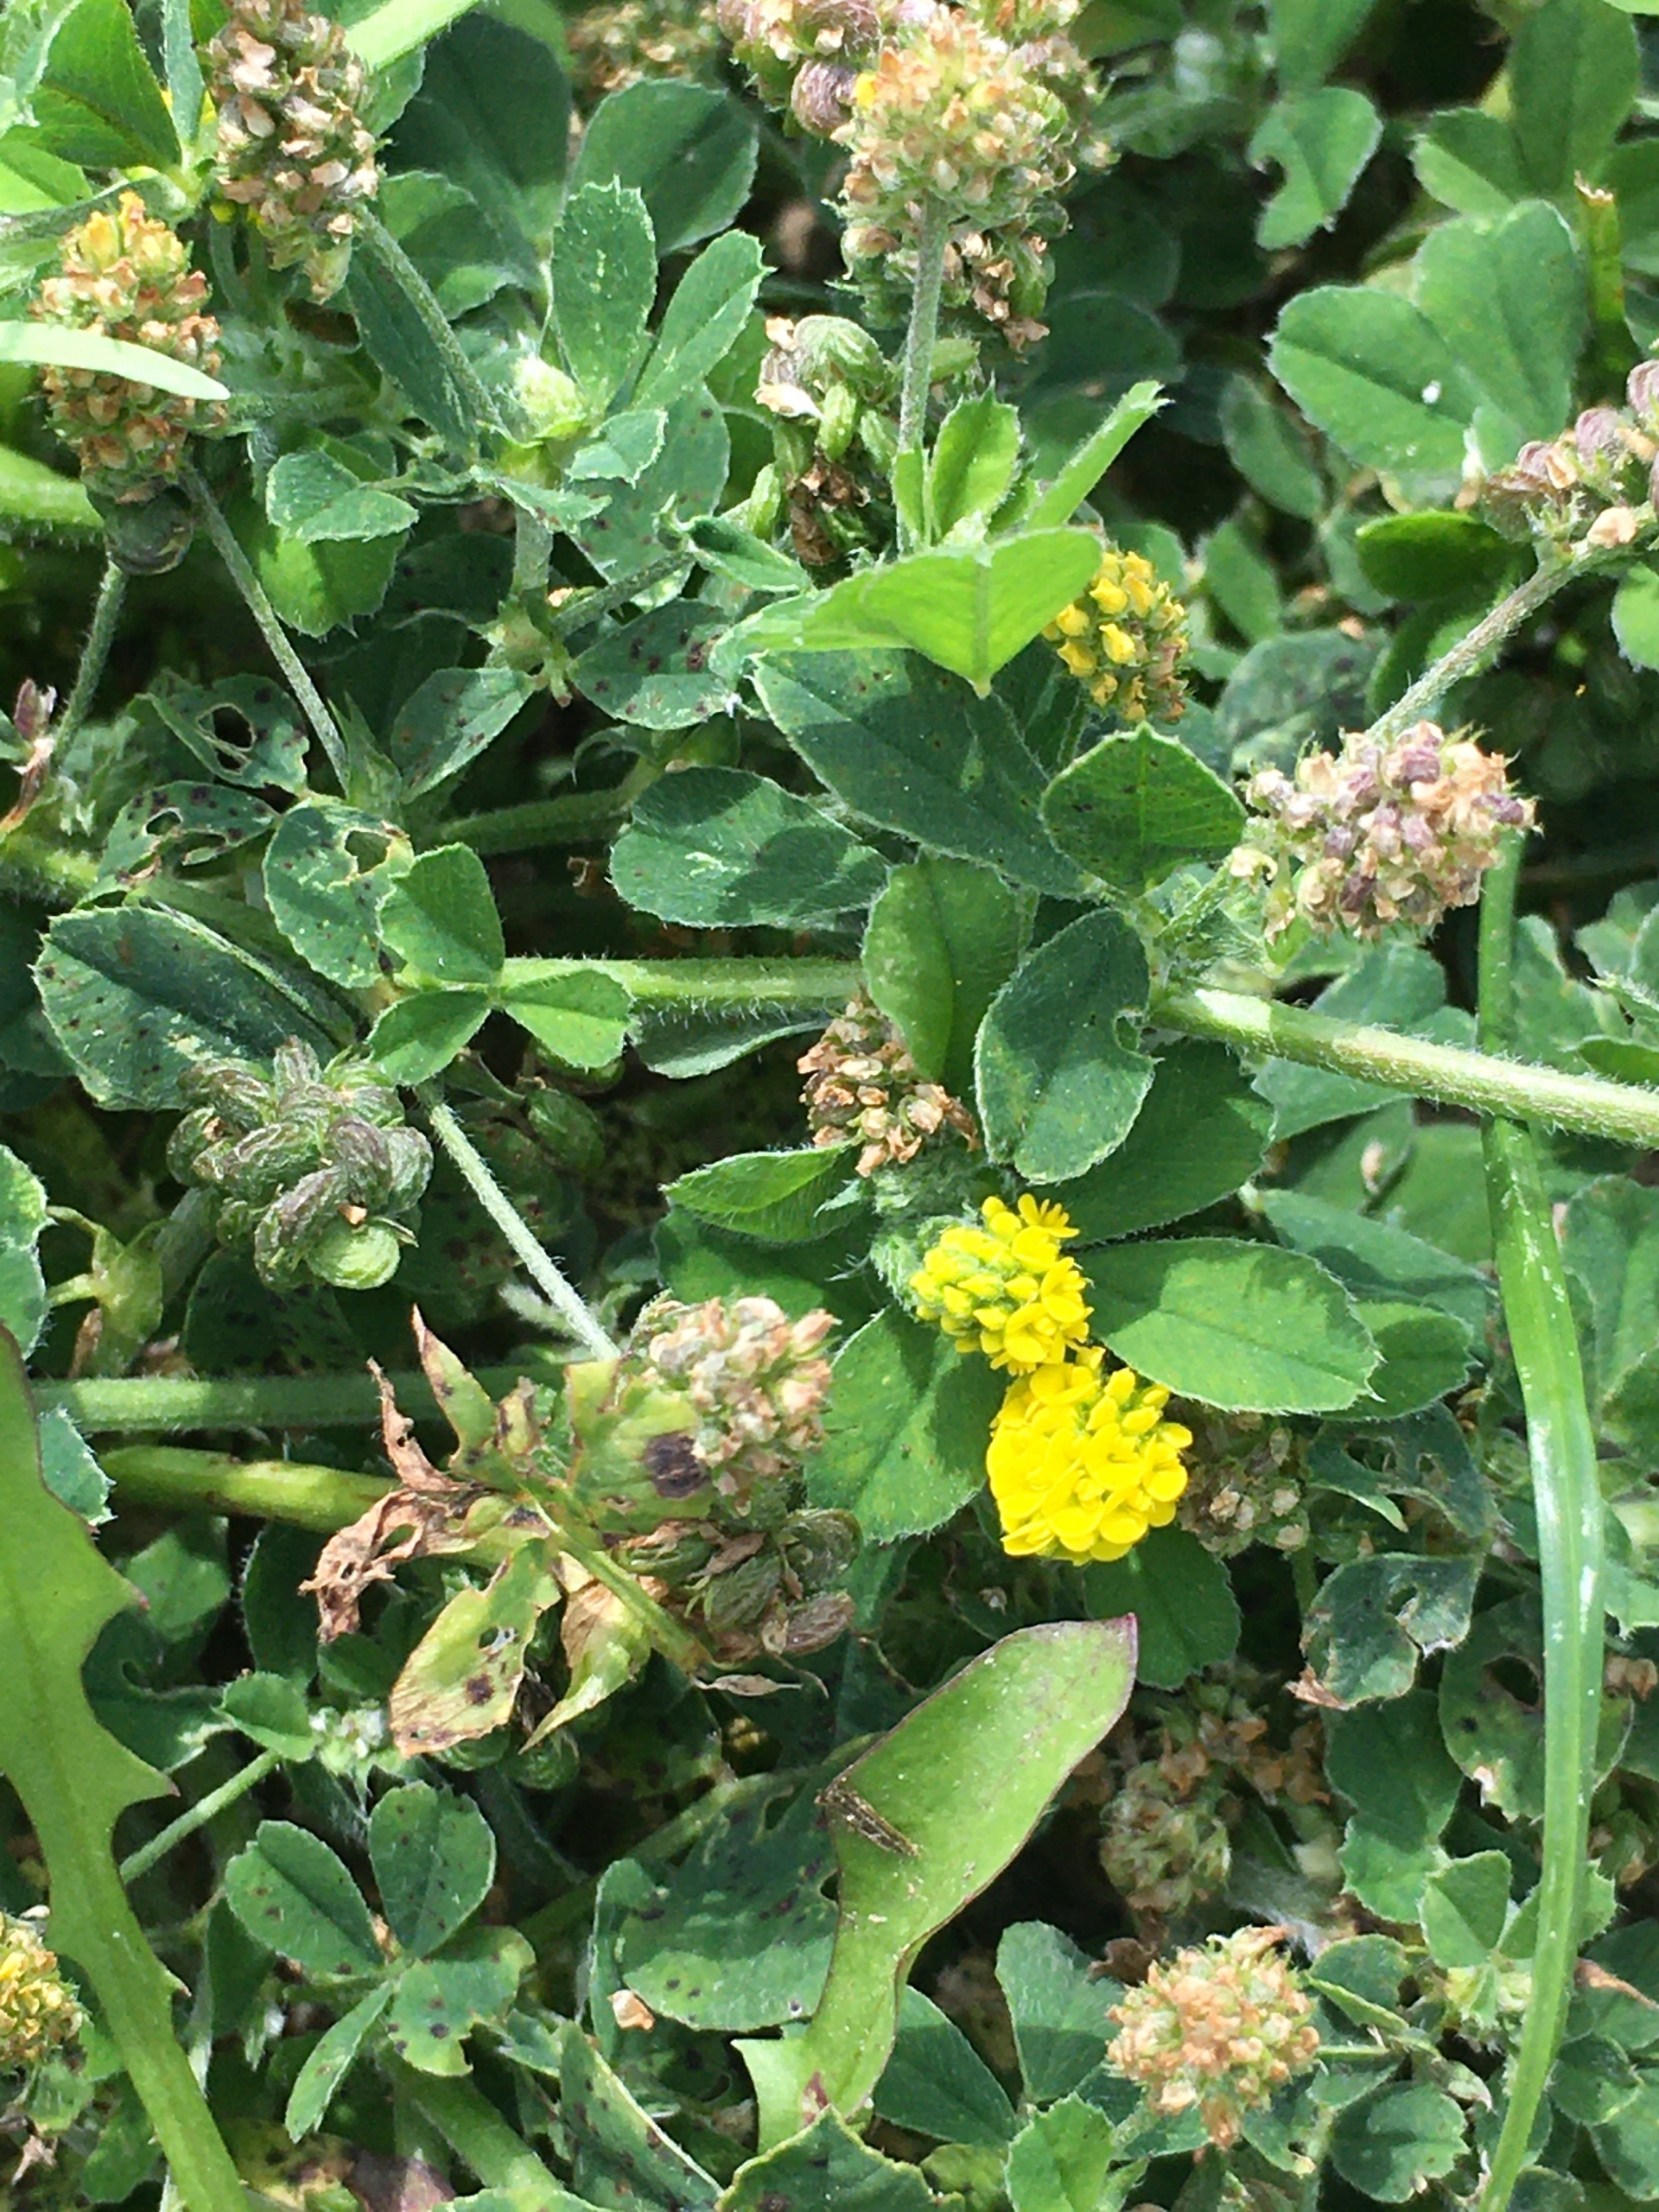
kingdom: Plantae
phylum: Tracheophyta
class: Magnoliopsida
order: Fabales
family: Fabaceae
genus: Medicago
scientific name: Medicago lupulina
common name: Humle-sneglebælg
